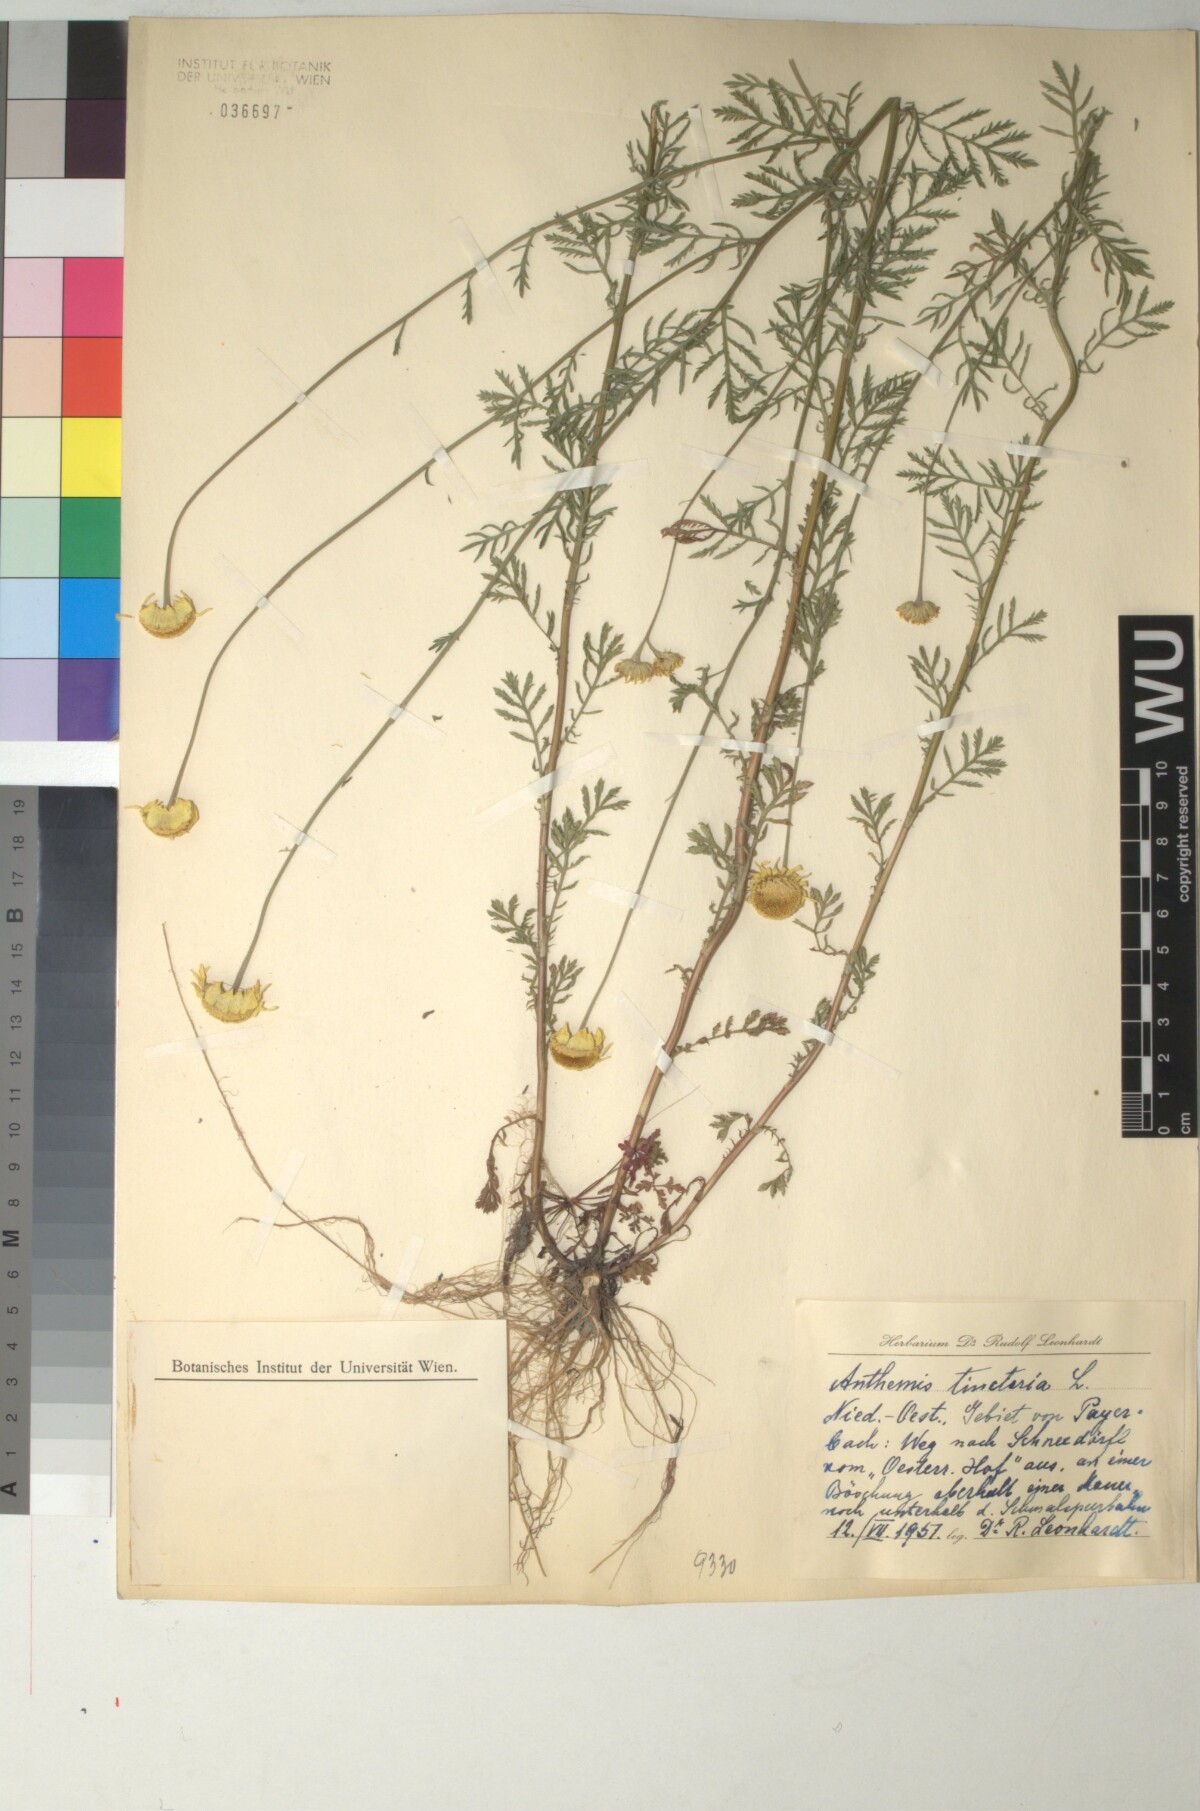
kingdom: Plantae
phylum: Tracheophyta
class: Magnoliopsida
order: Asterales
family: Asteraceae
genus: Cota
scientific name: Cota tinctoria
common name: Golden chamomile
